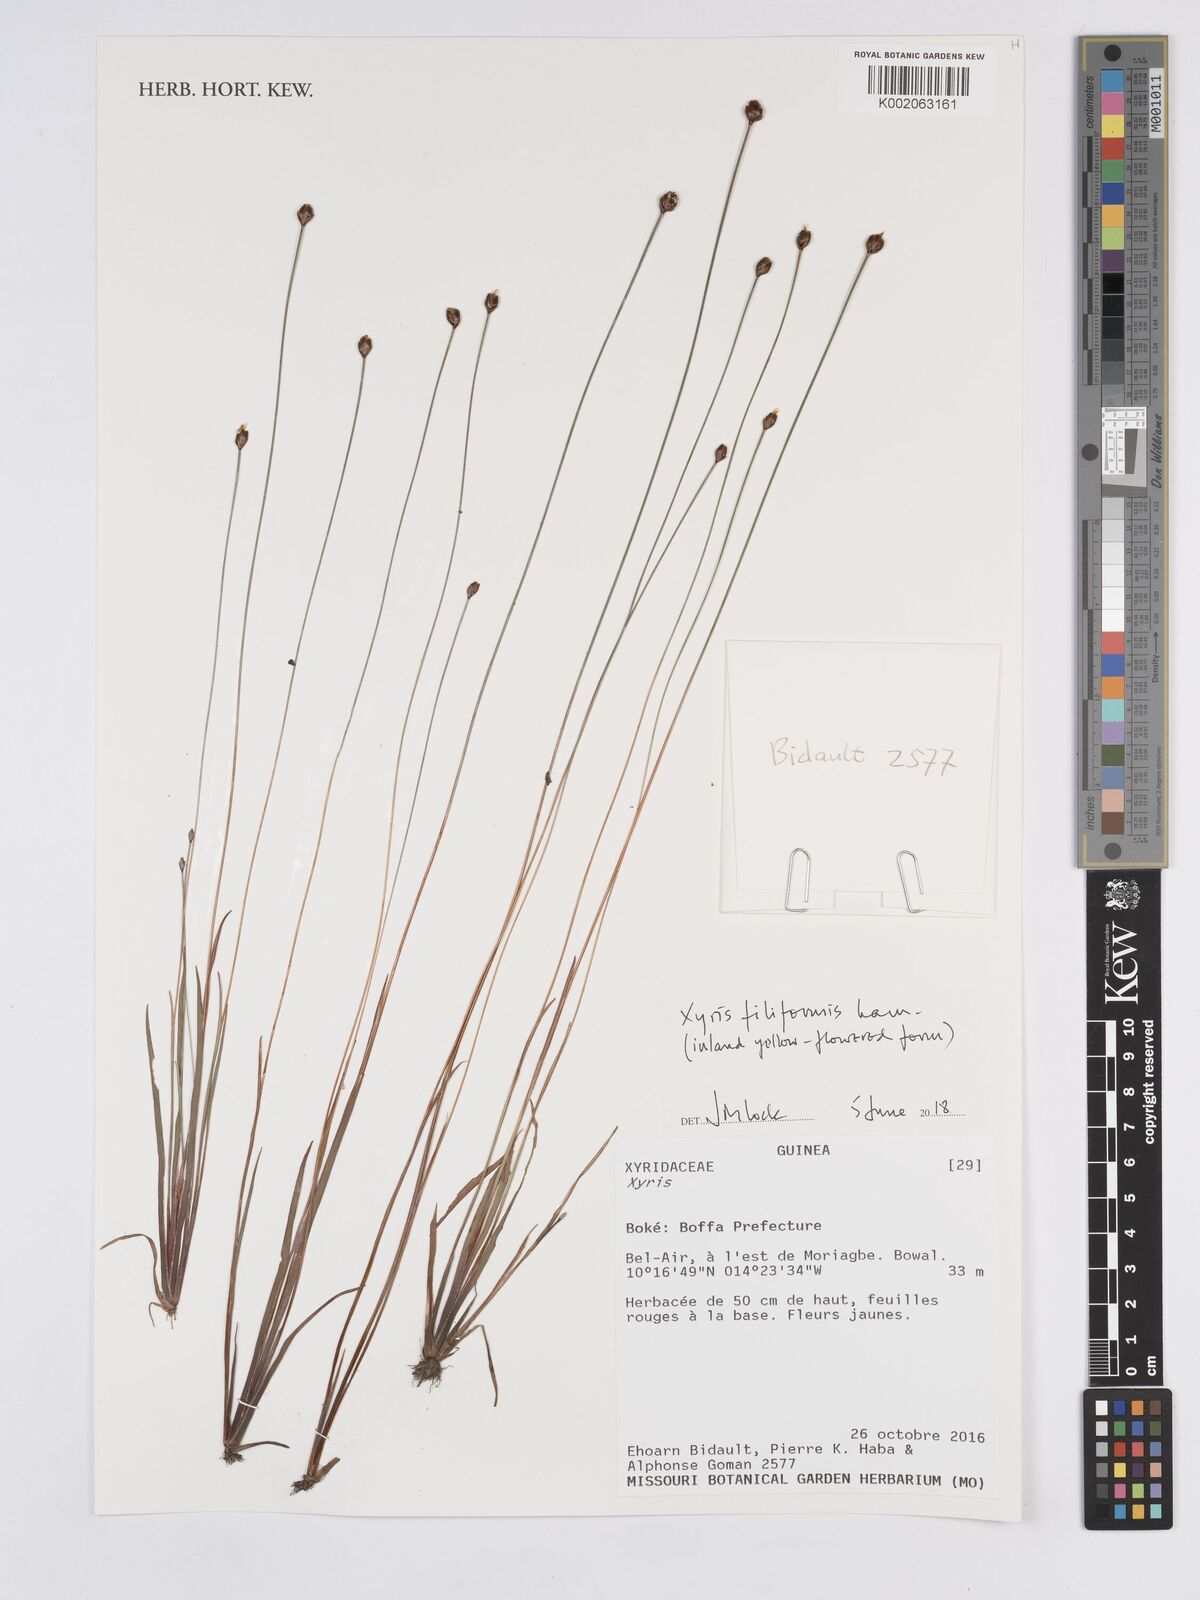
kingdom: Plantae
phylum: Tracheophyta
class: Liliopsida
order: Poales
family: Xyridaceae
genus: Xyris
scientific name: Xyris filiformis
